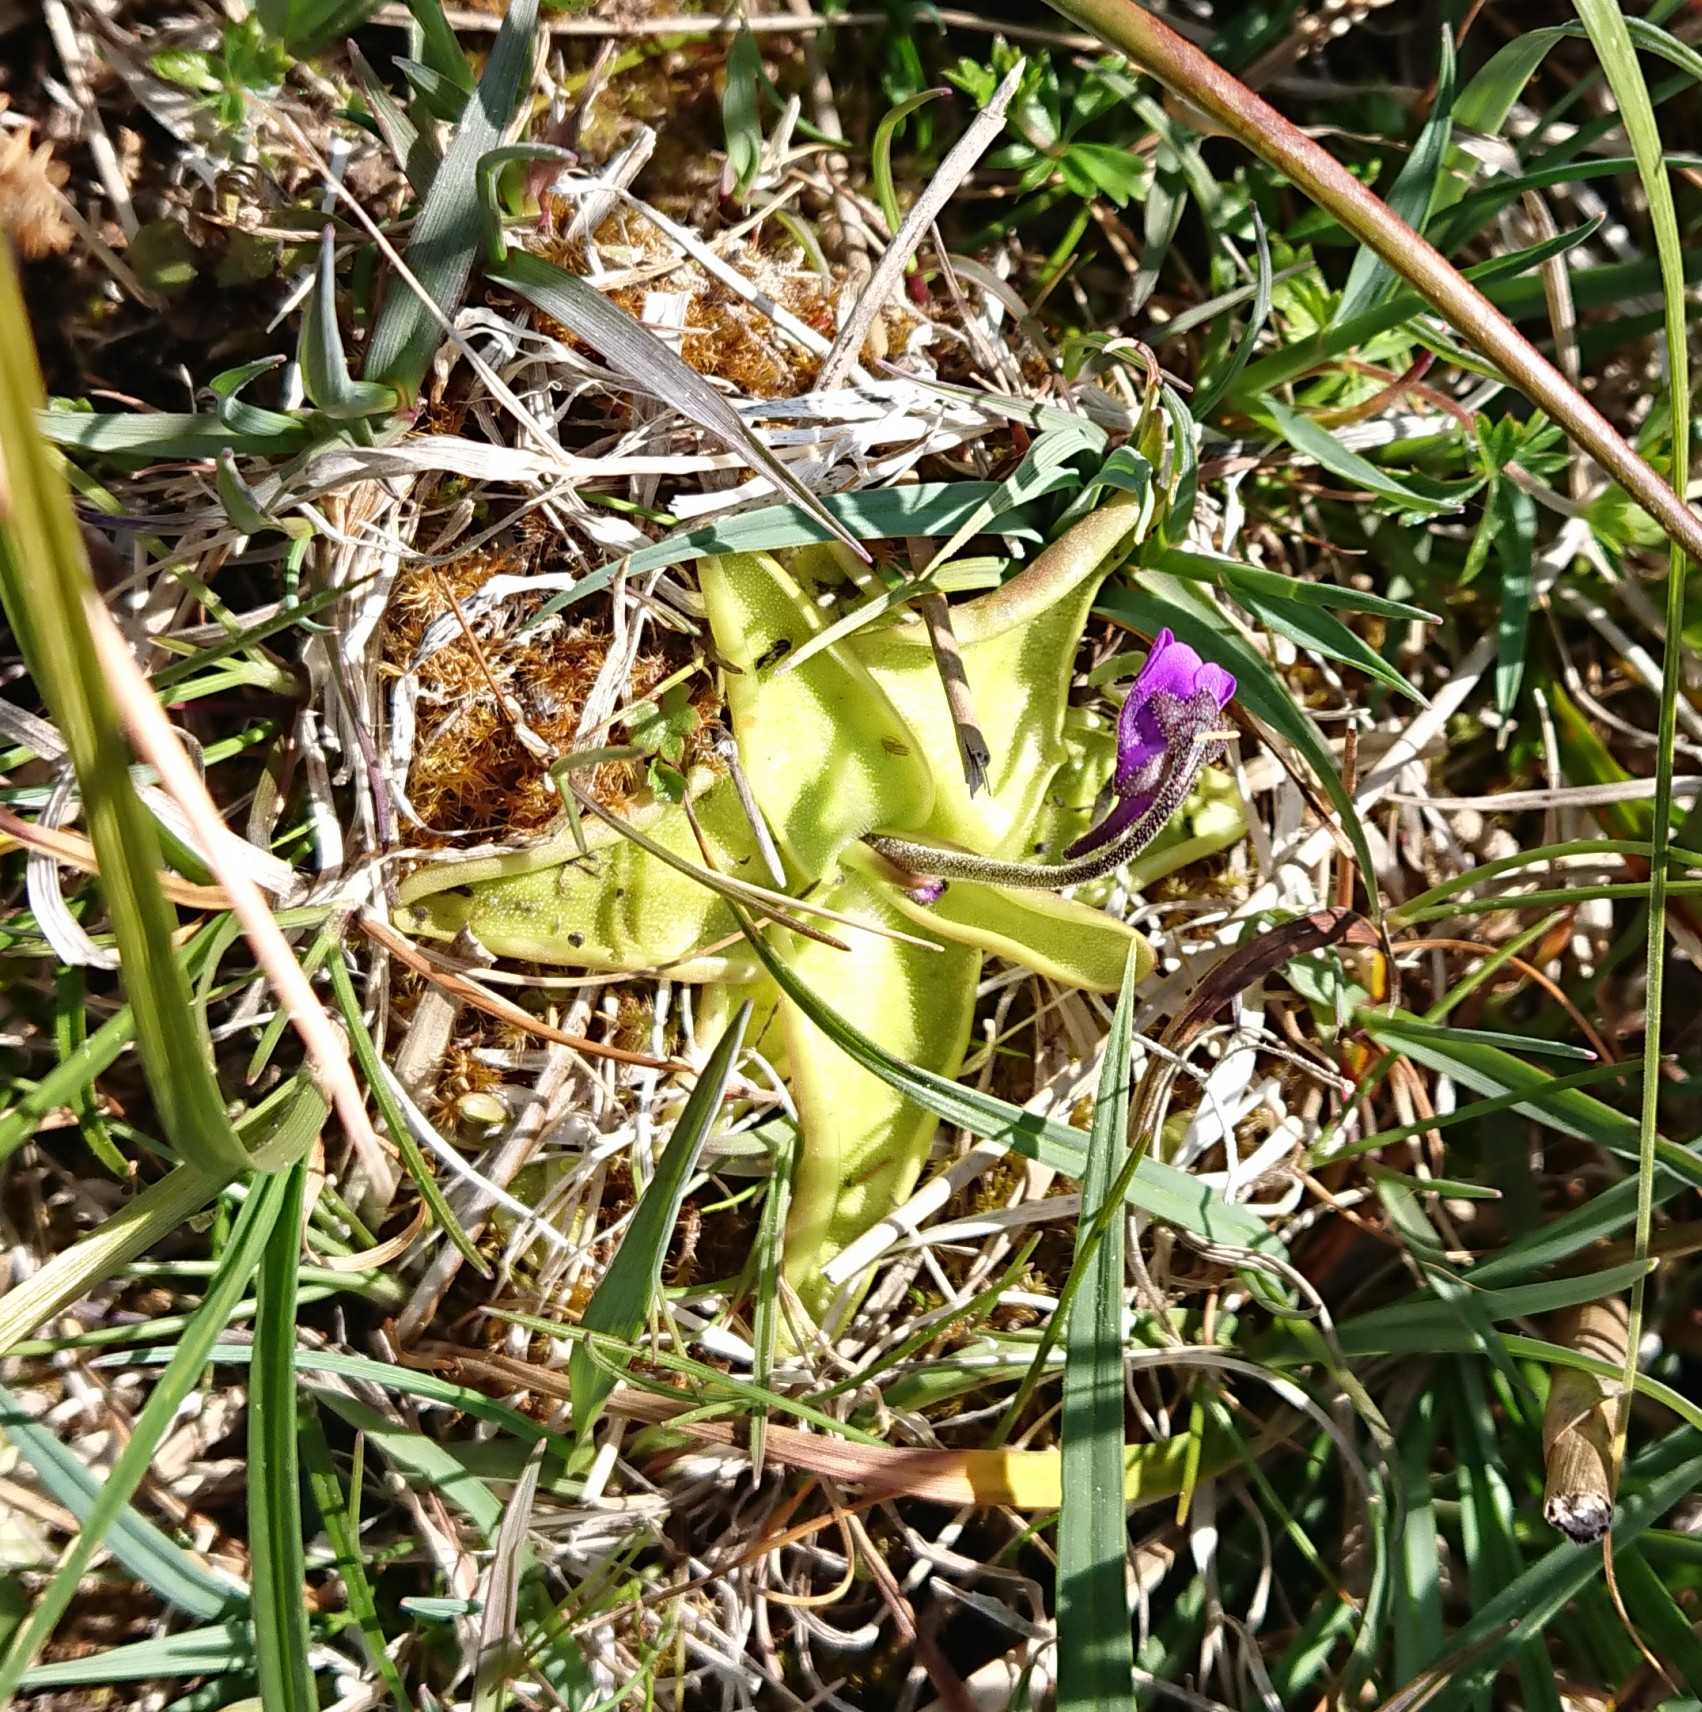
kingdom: Plantae
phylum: Tracheophyta
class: Magnoliopsida
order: Lamiales
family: Lentibulariaceae
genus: Pinguicula
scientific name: Pinguicula vulgaris
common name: Vibefedt
